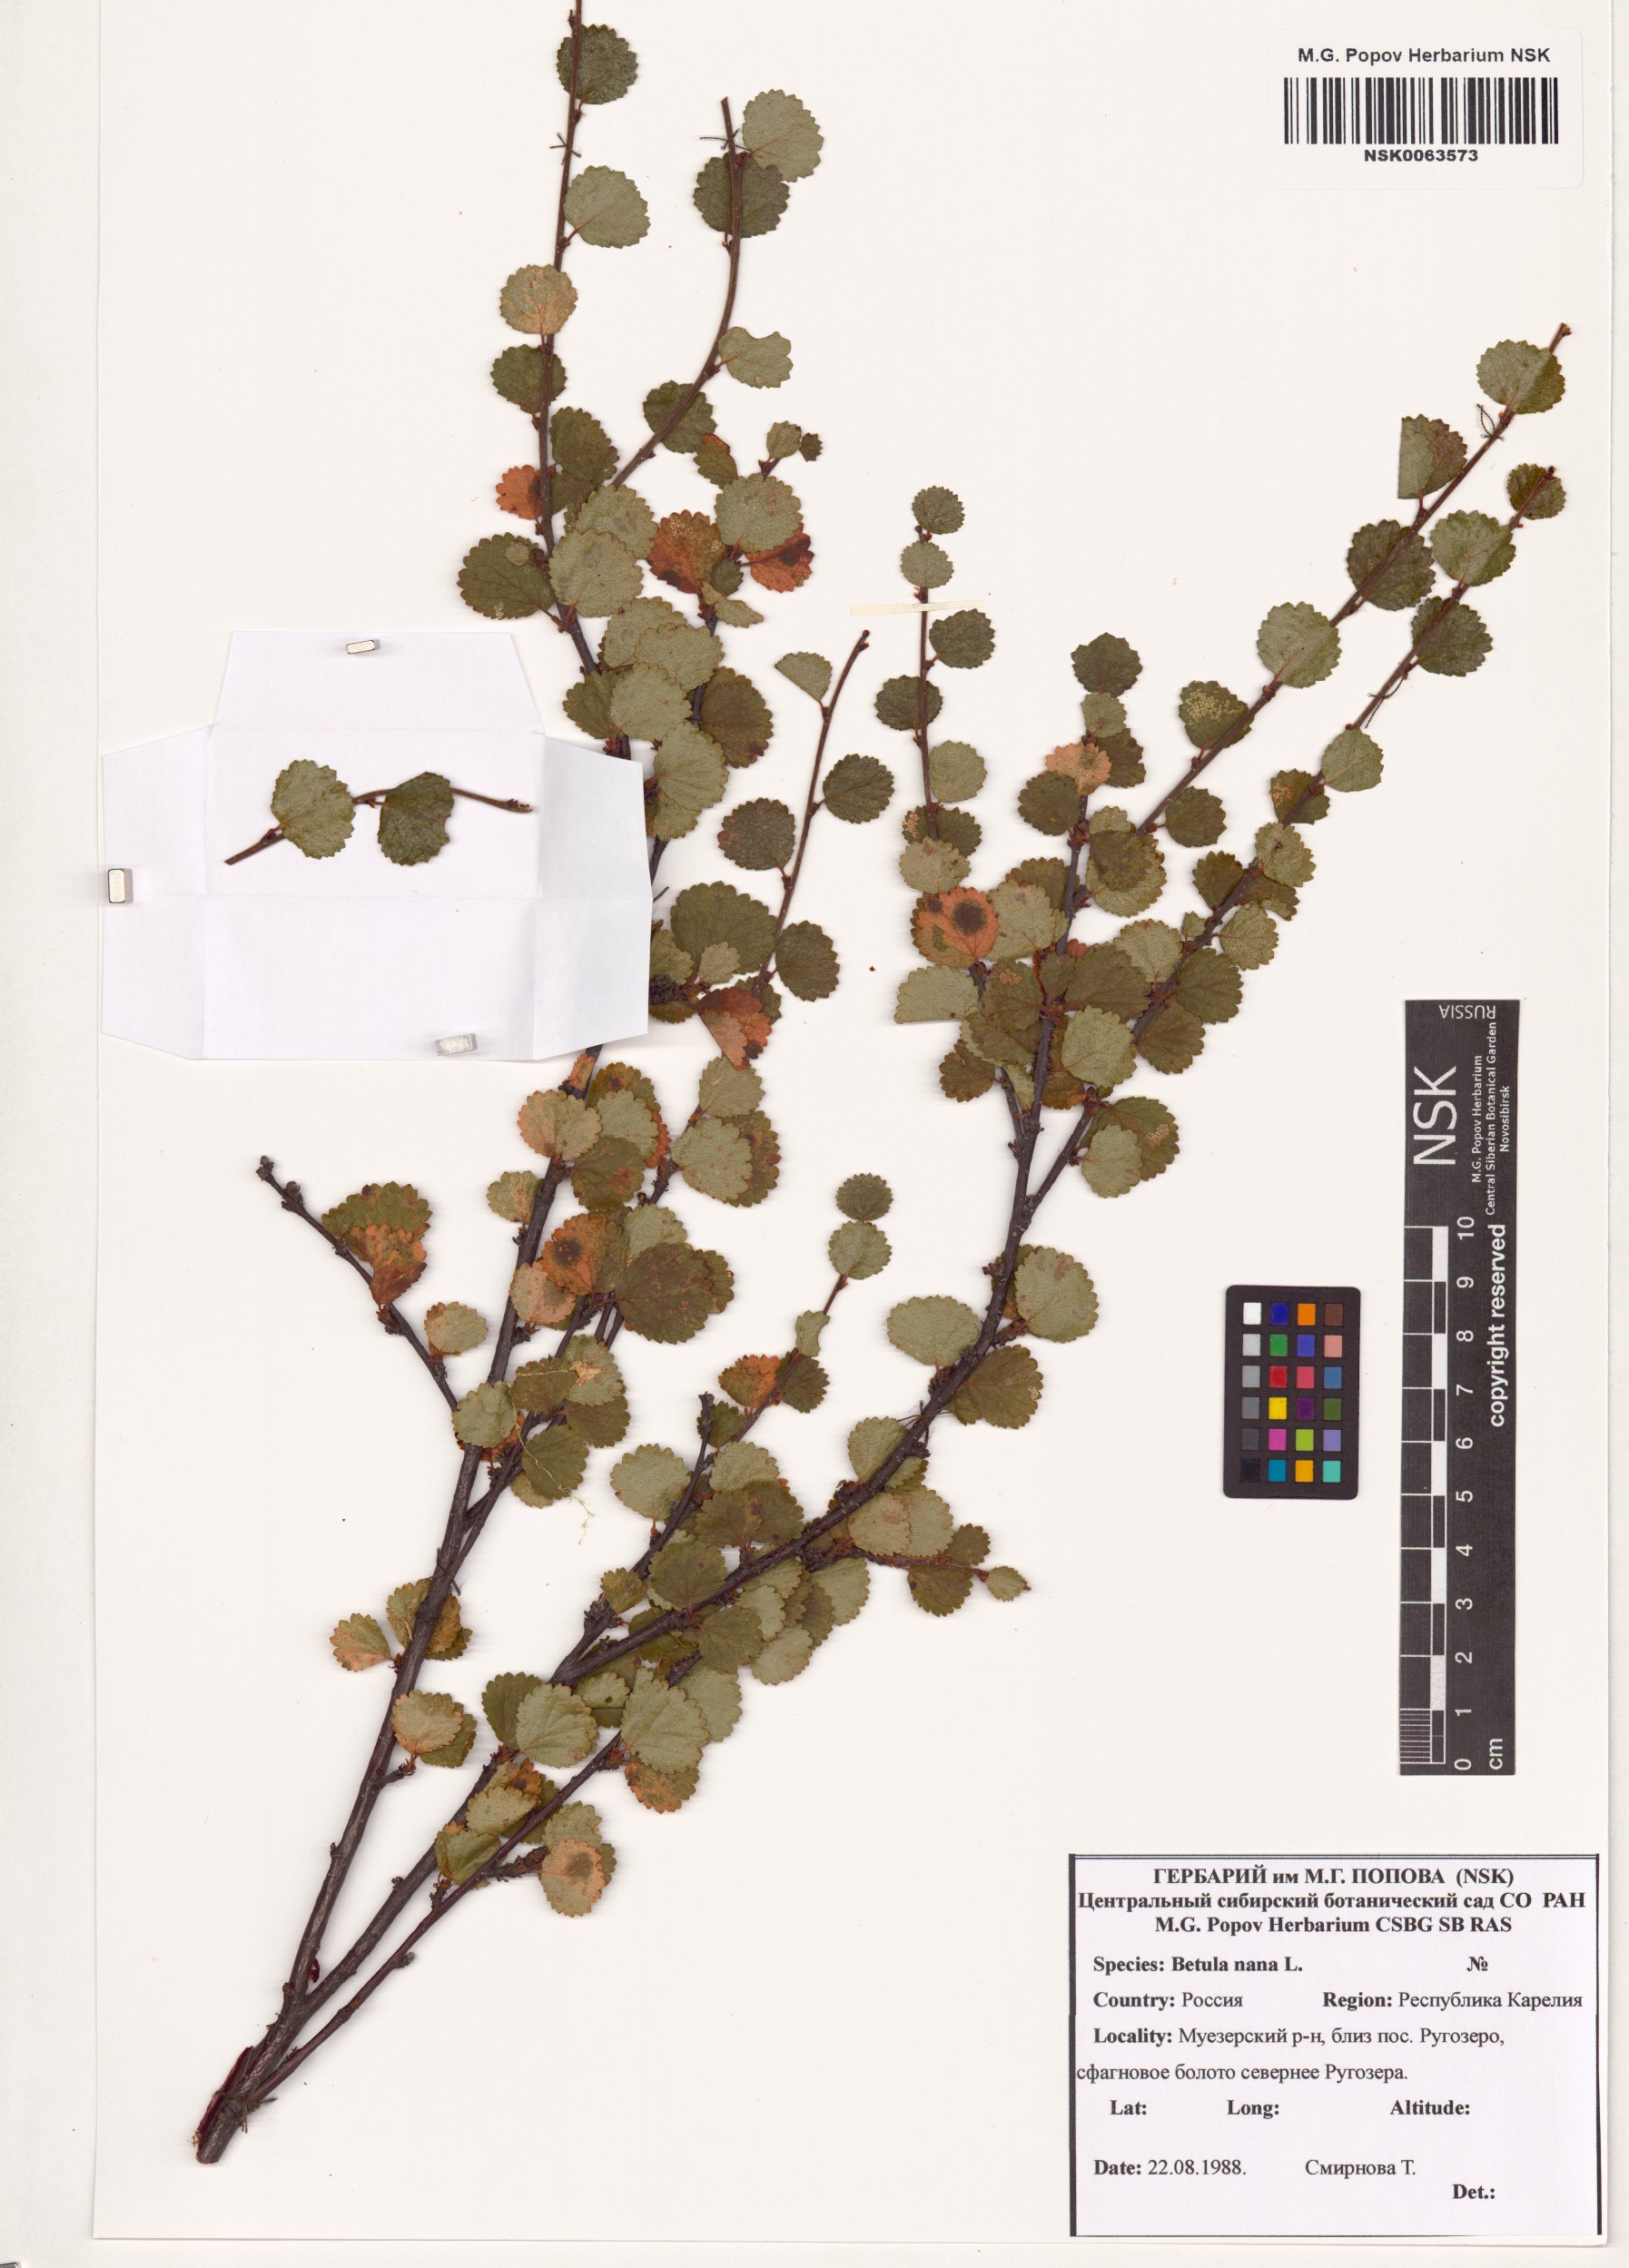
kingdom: Plantae
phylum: Tracheophyta
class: Magnoliopsida
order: Fagales
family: Betulaceae
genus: Betula
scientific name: Betula nana
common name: Arctic dwarf birch
